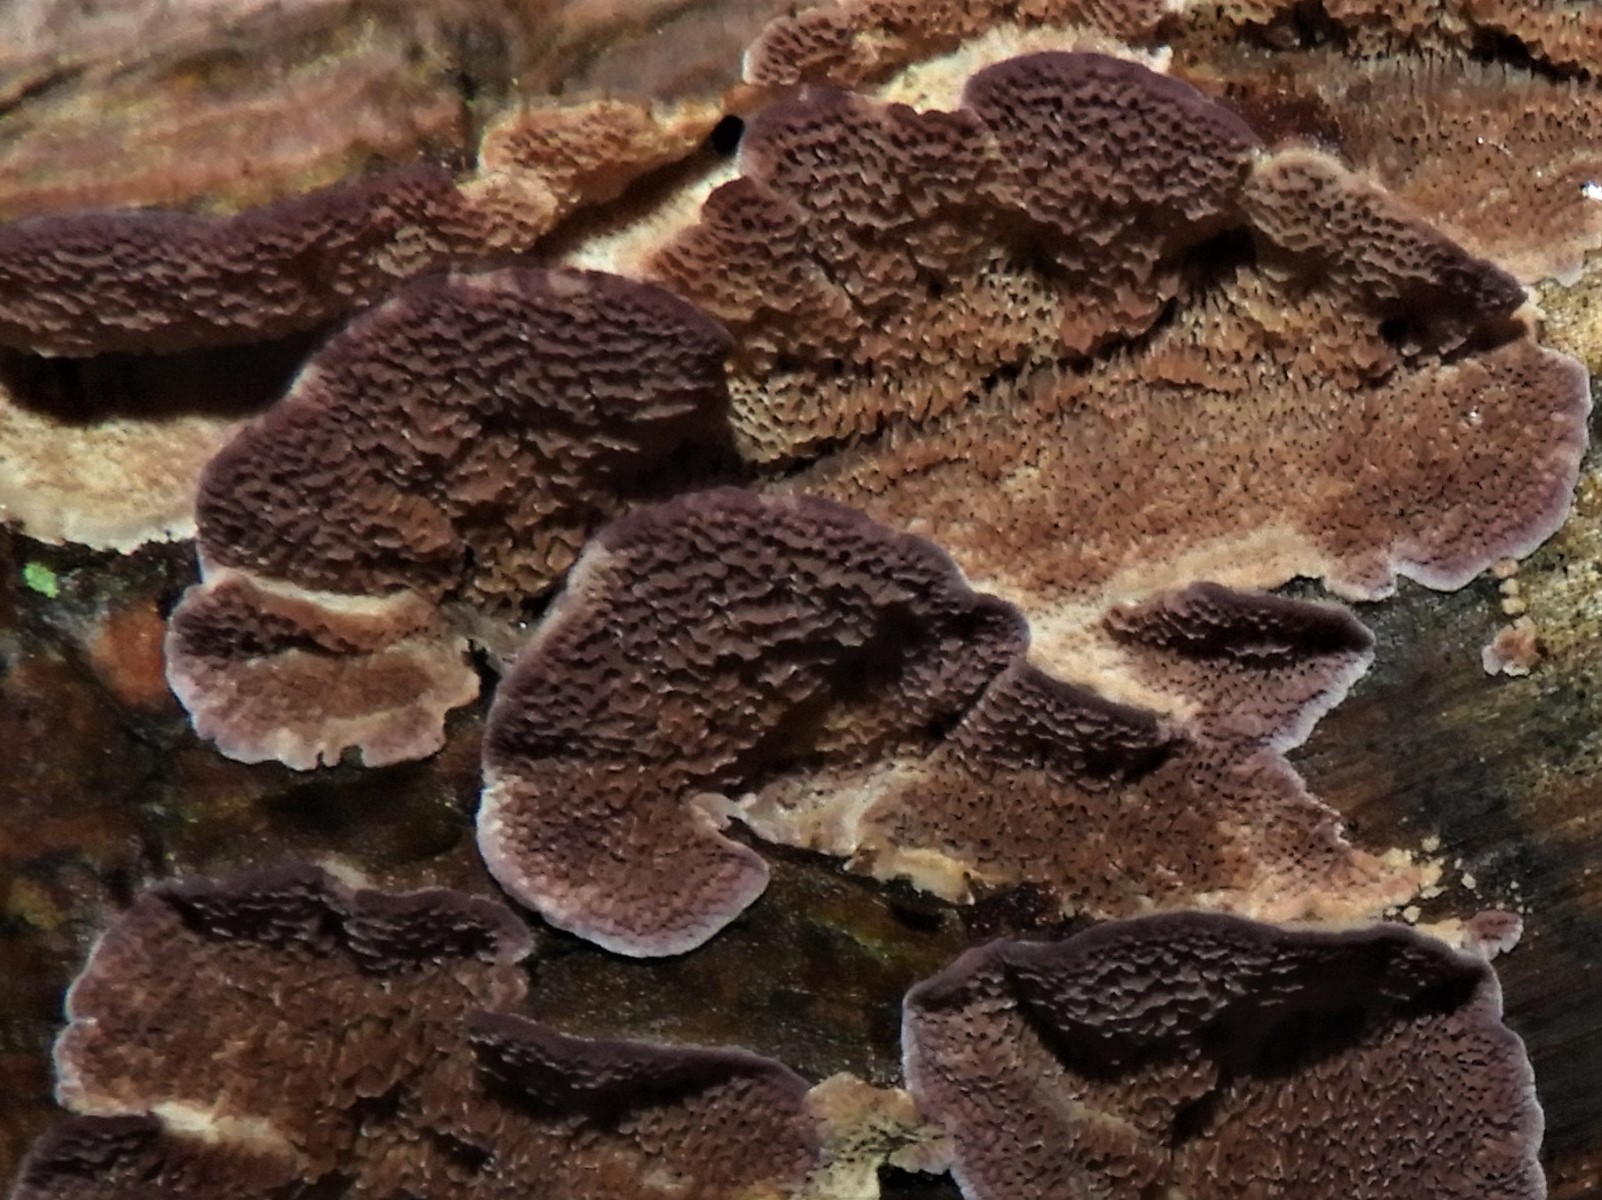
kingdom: Fungi
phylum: Basidiomycota
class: Agaricomycetes
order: Hymenochaetales
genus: Trichaptum
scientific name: Trichaptum abietinum
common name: almindelig violporesvamp
